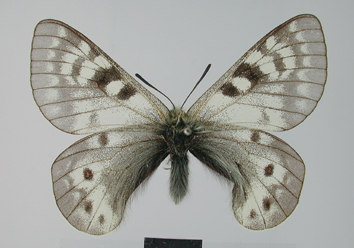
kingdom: Animalia
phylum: Arthropoda
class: Insecta
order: Lepidoptera
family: Papilionidae
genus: Parnassius
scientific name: Parnassius staudingeri
